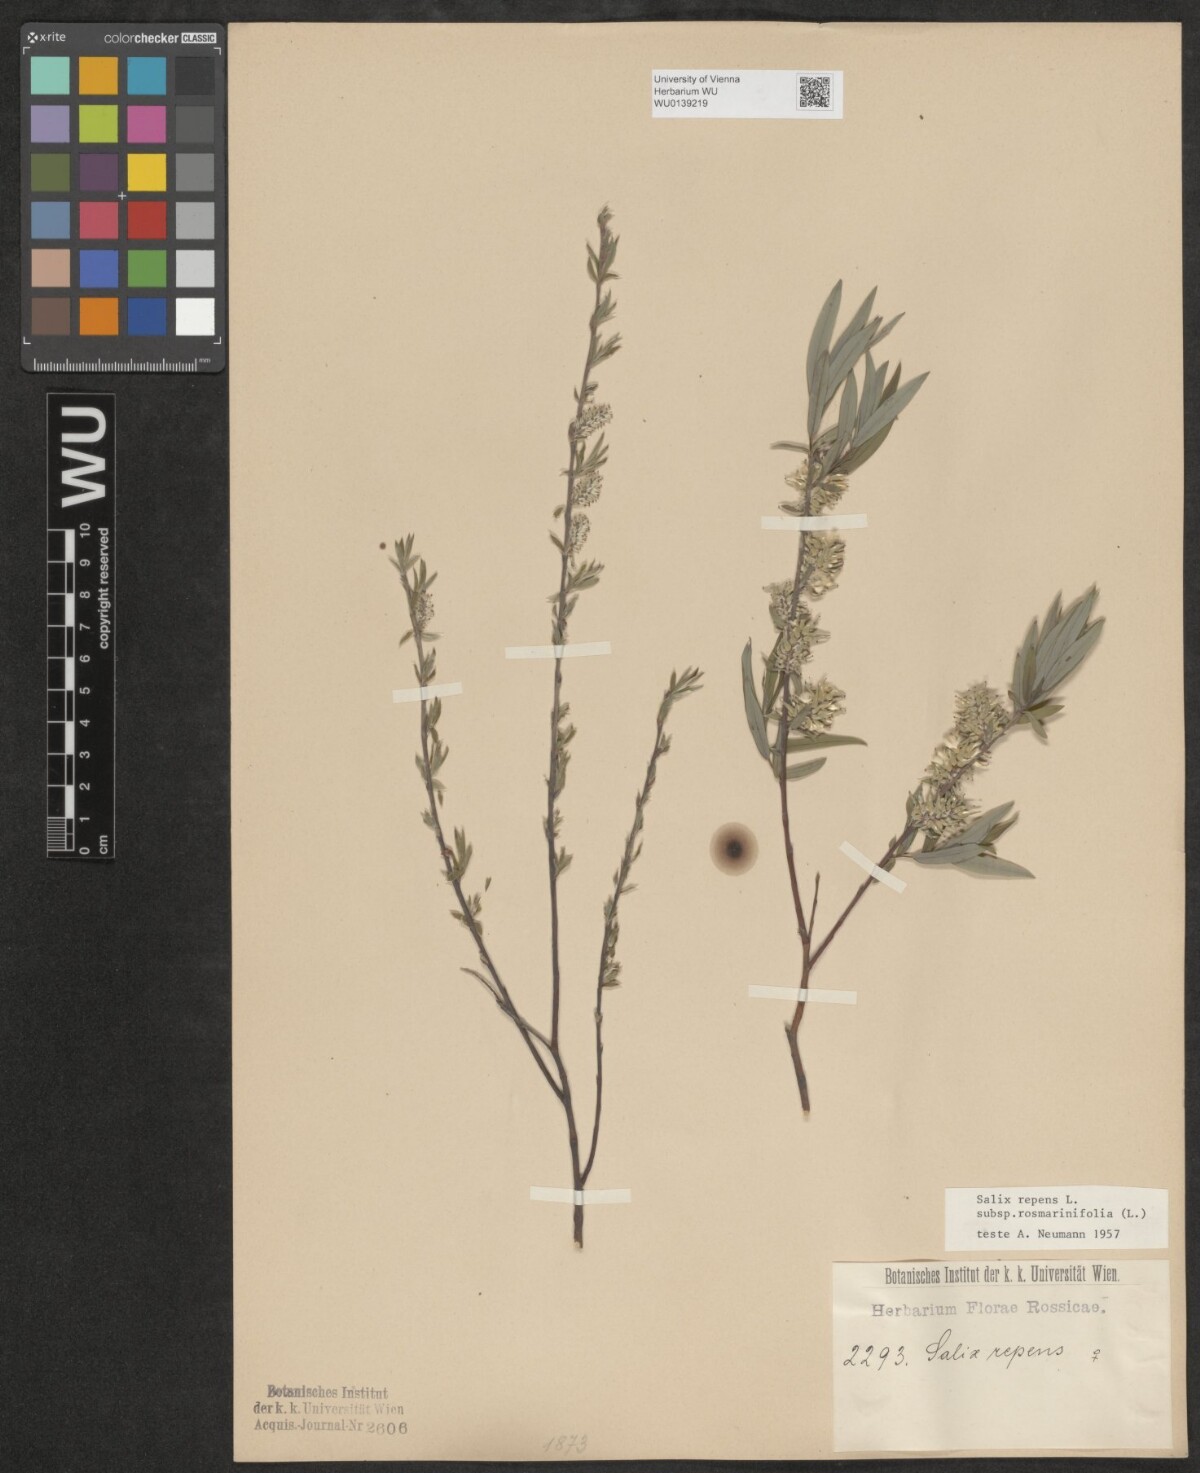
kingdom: Plantae
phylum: Tracheophyta
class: Magnoliopsida
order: Malpighiales
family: Salicaceae
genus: Salix
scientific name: Salix repens
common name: Creeping willow
